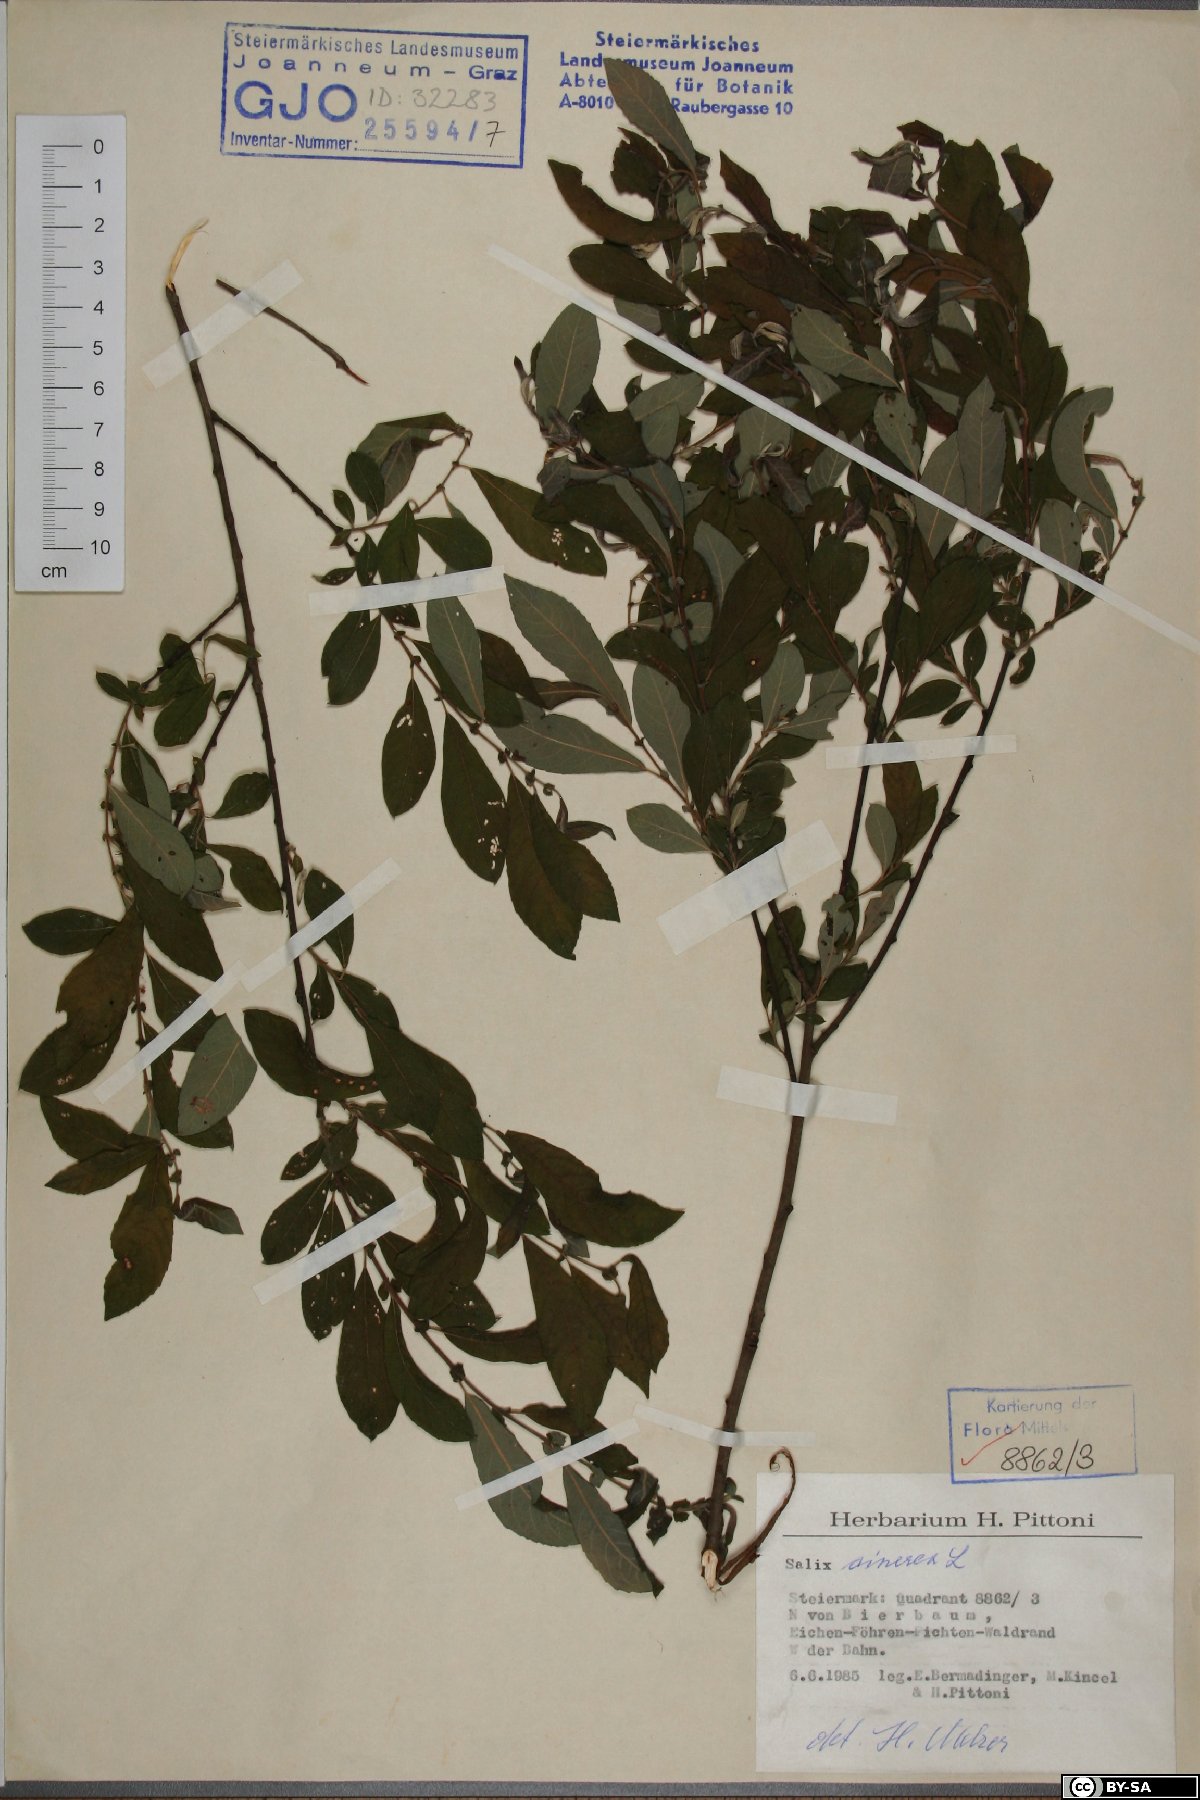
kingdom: Plantae
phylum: Tracheophyta
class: Magnoliopsida
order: Malpighiales
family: Salicaceae
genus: Salix
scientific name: Salix cinerea
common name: Common sallow
